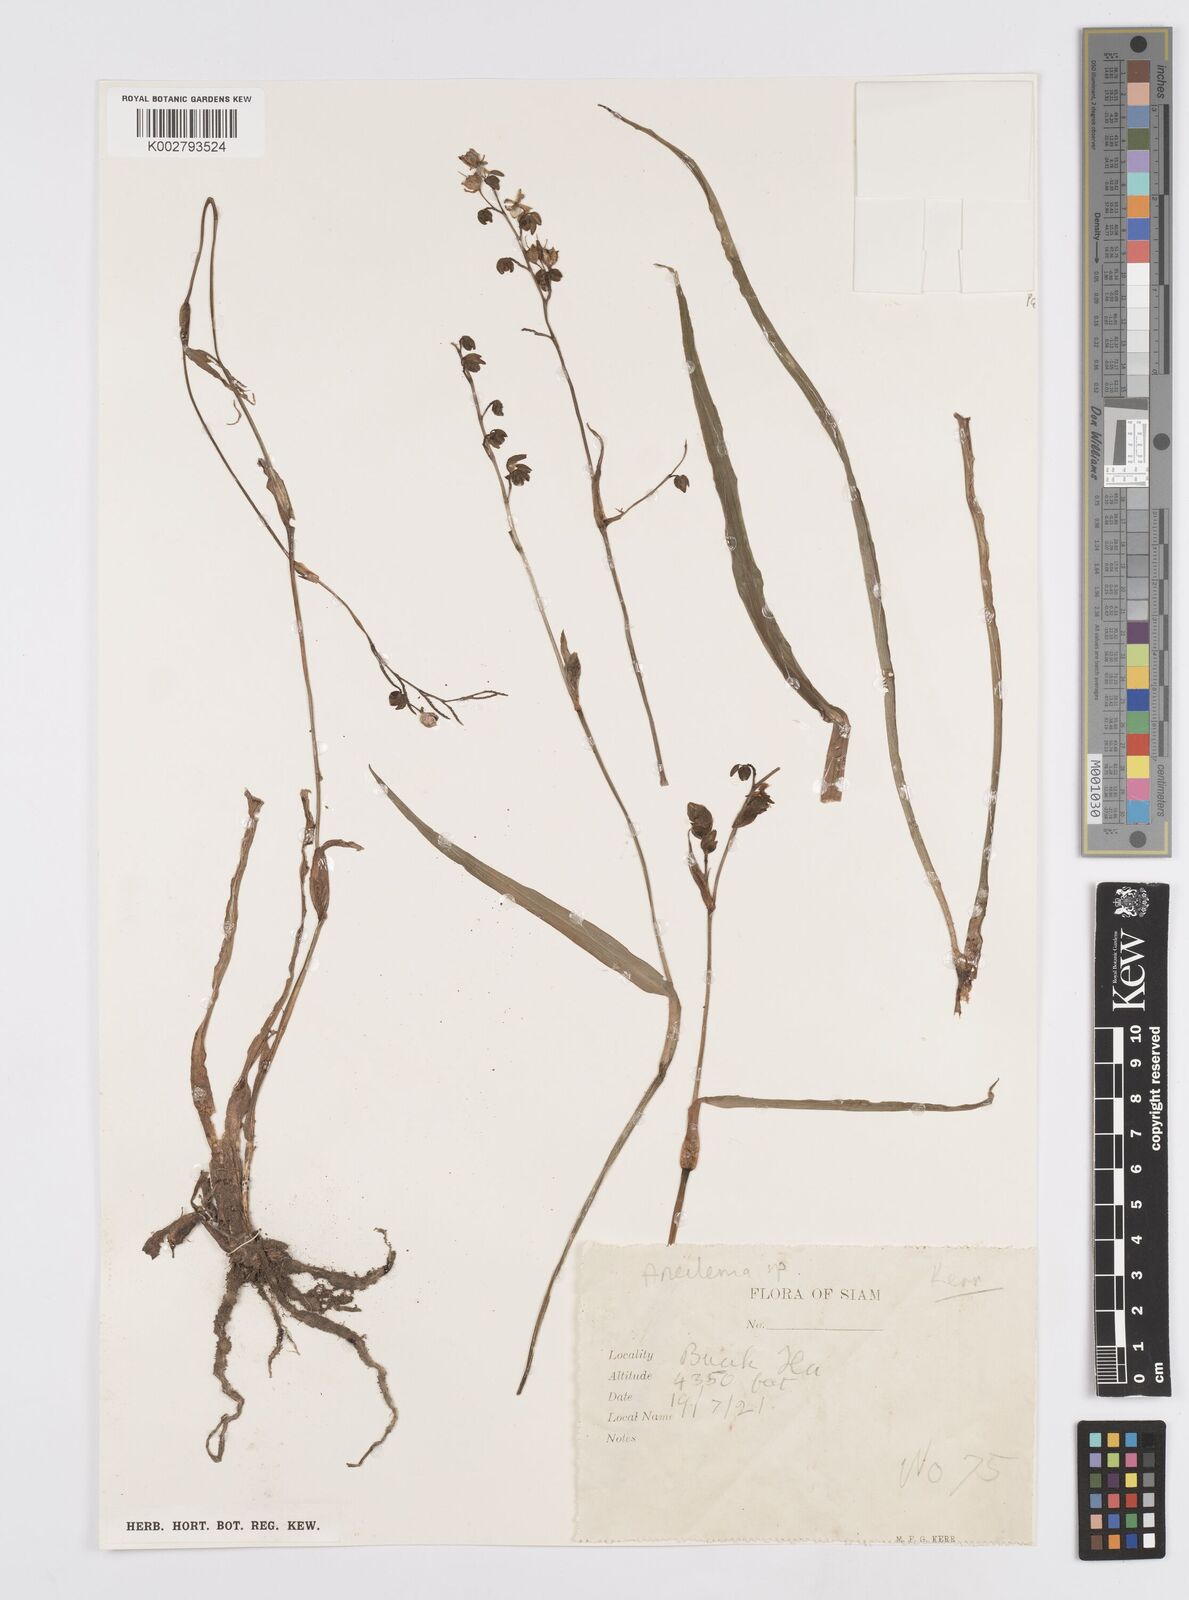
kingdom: Plantae
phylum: Tracheophyta
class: Liliopsida
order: Commelinales
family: Commelinaceae
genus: Murdannia
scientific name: Murdannia
